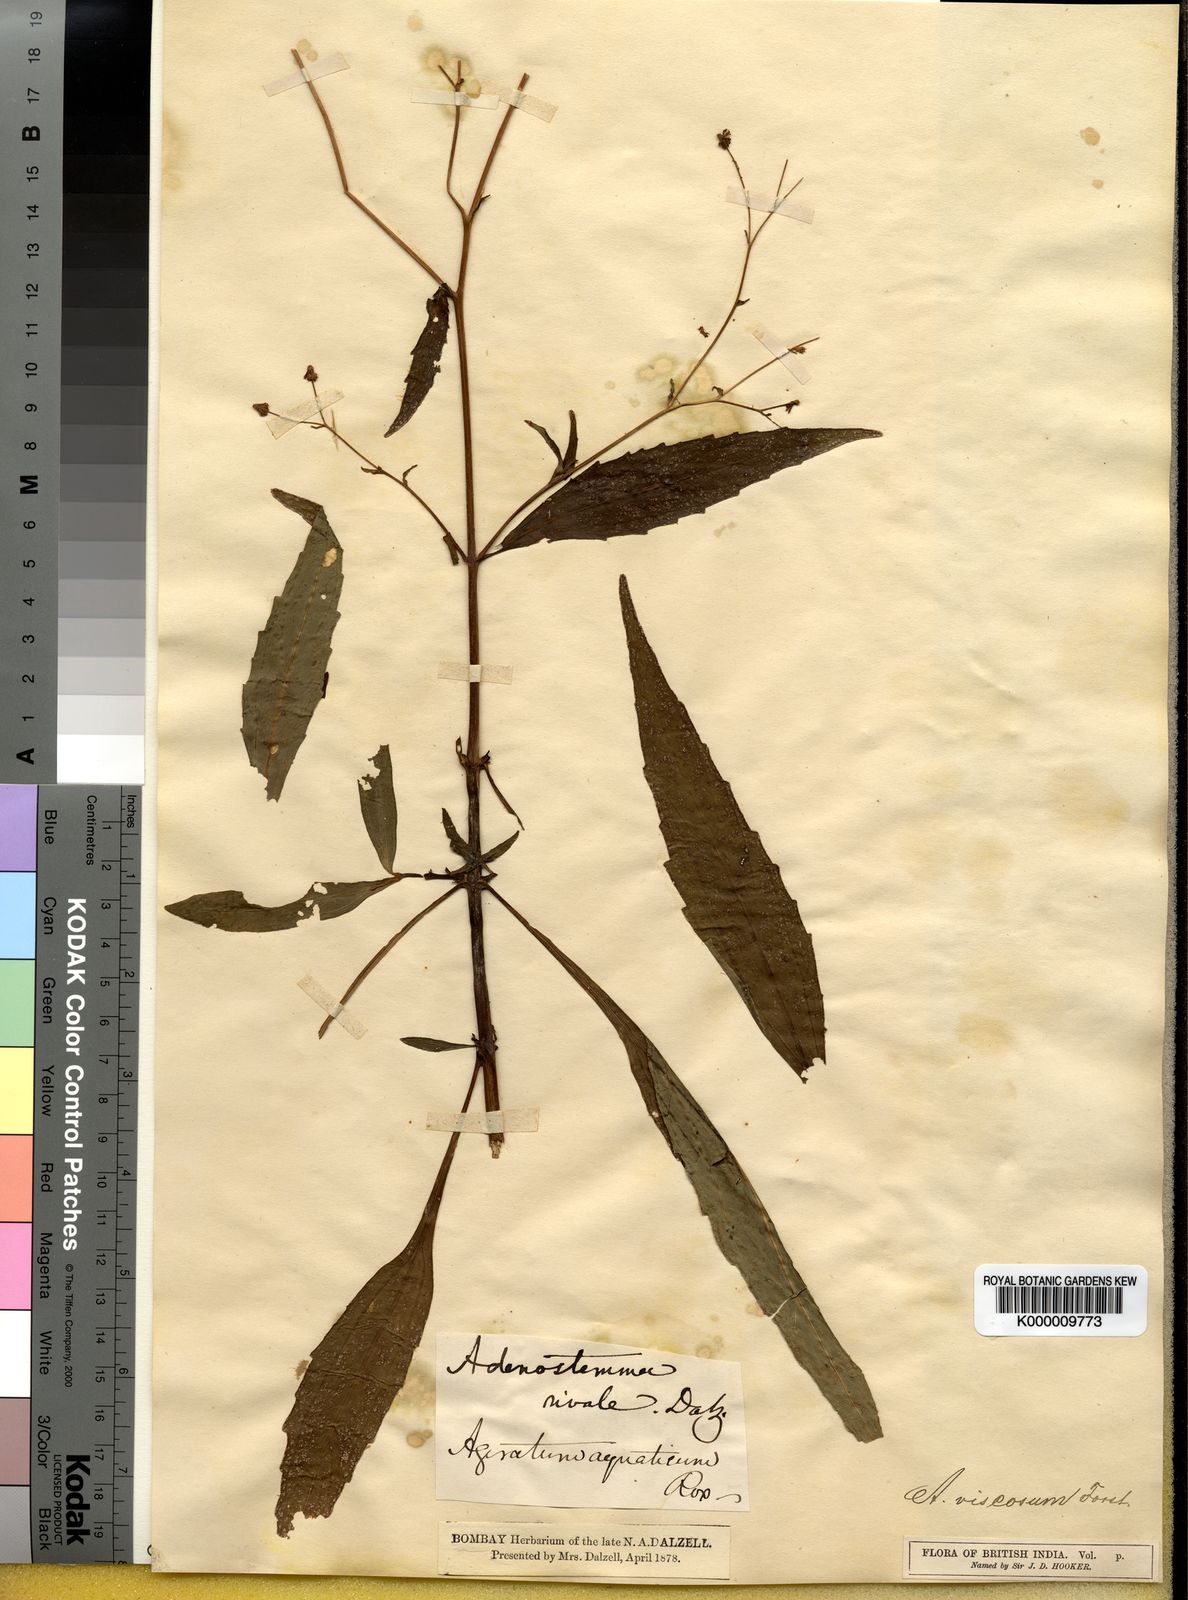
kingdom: Plantae
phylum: Tracheophyta
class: Magnoliopsida
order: Asterales
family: Asteraceae
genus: Adenostemma
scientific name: Adenostemma viscosum
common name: Dungweed
